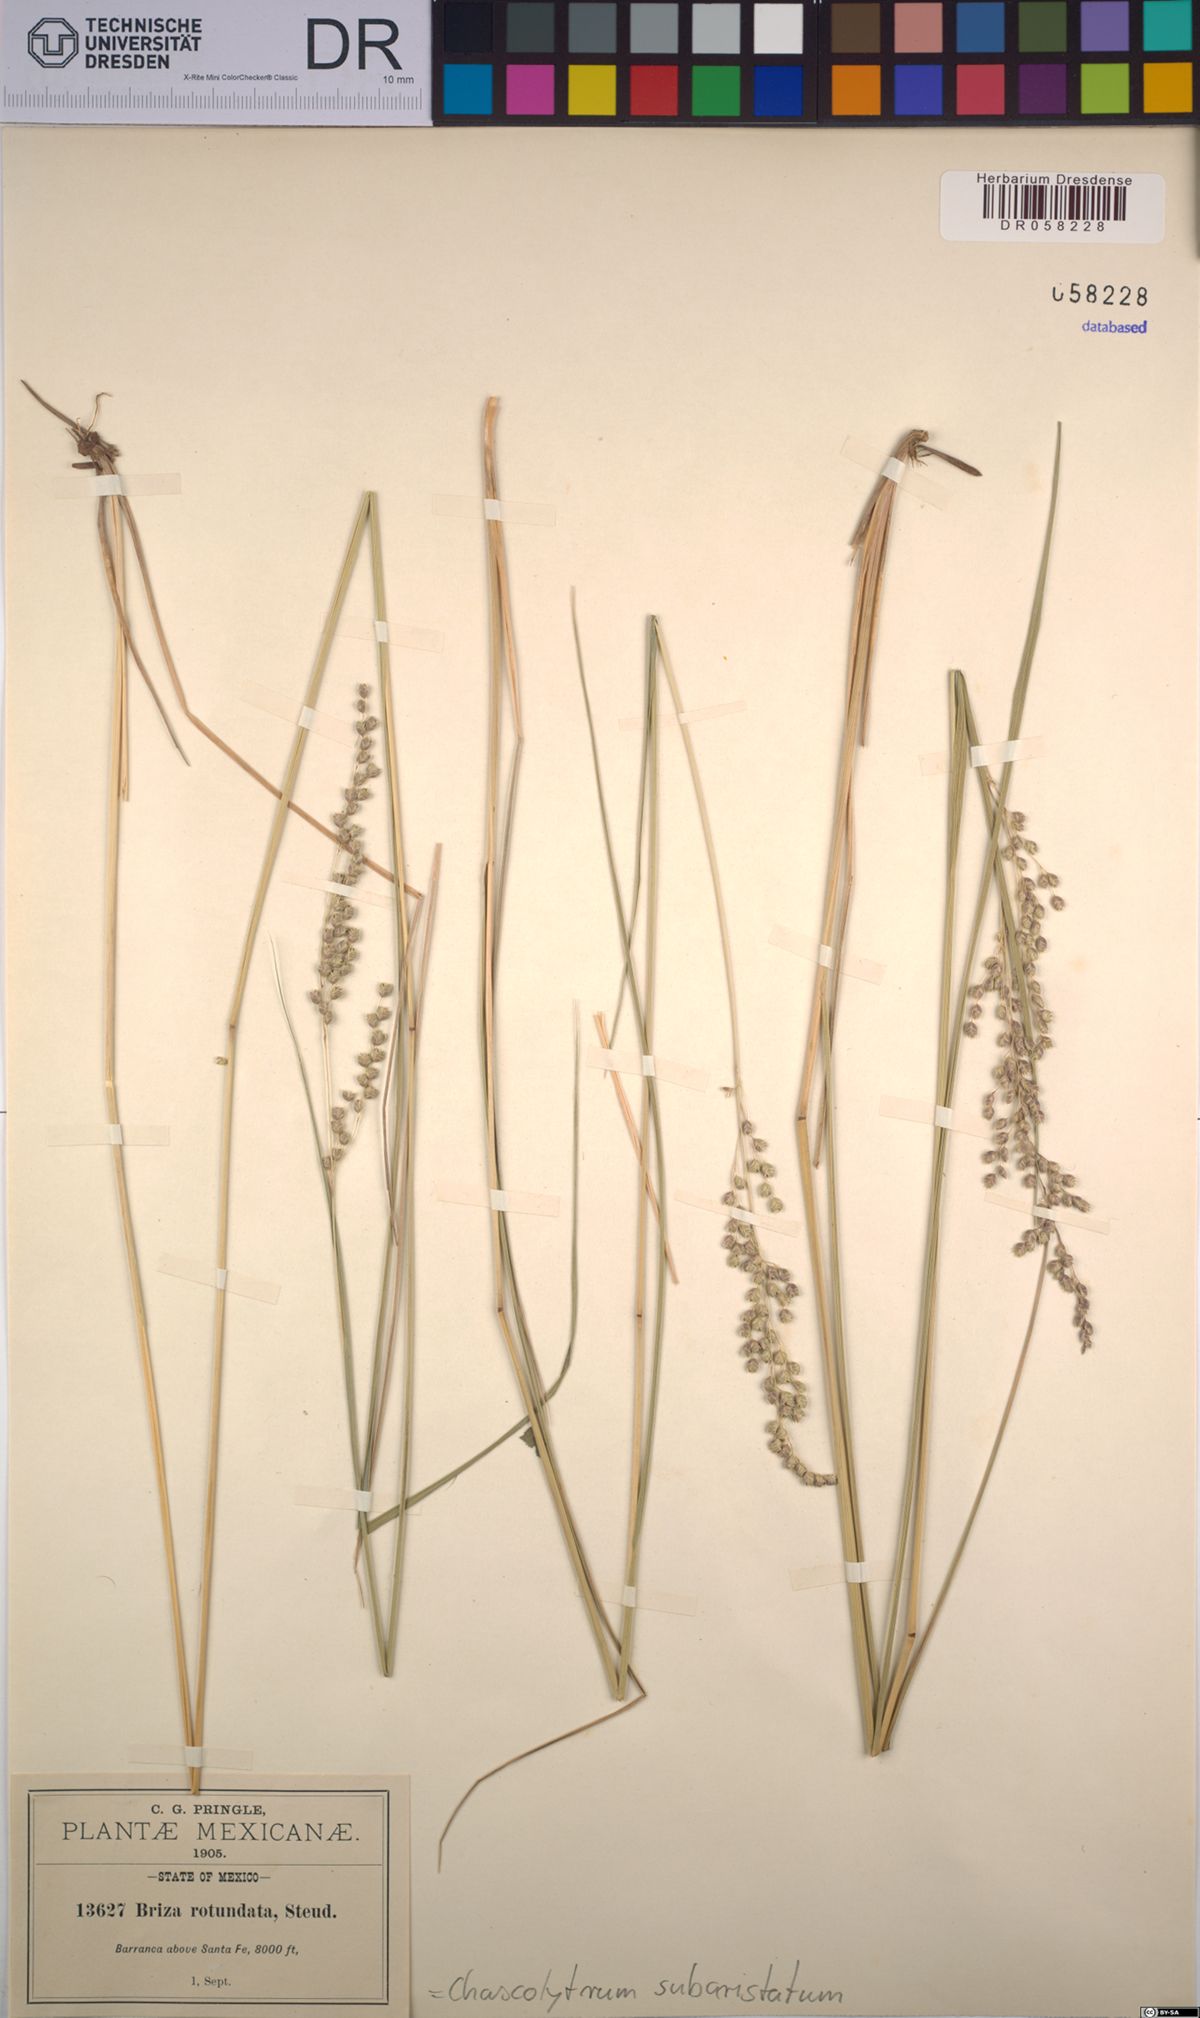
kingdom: Plantae
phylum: Tracheophyta
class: Liliopsida
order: Poales
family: Poaceae
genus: Chascolytrum
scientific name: Chascolytrum subaristatum
